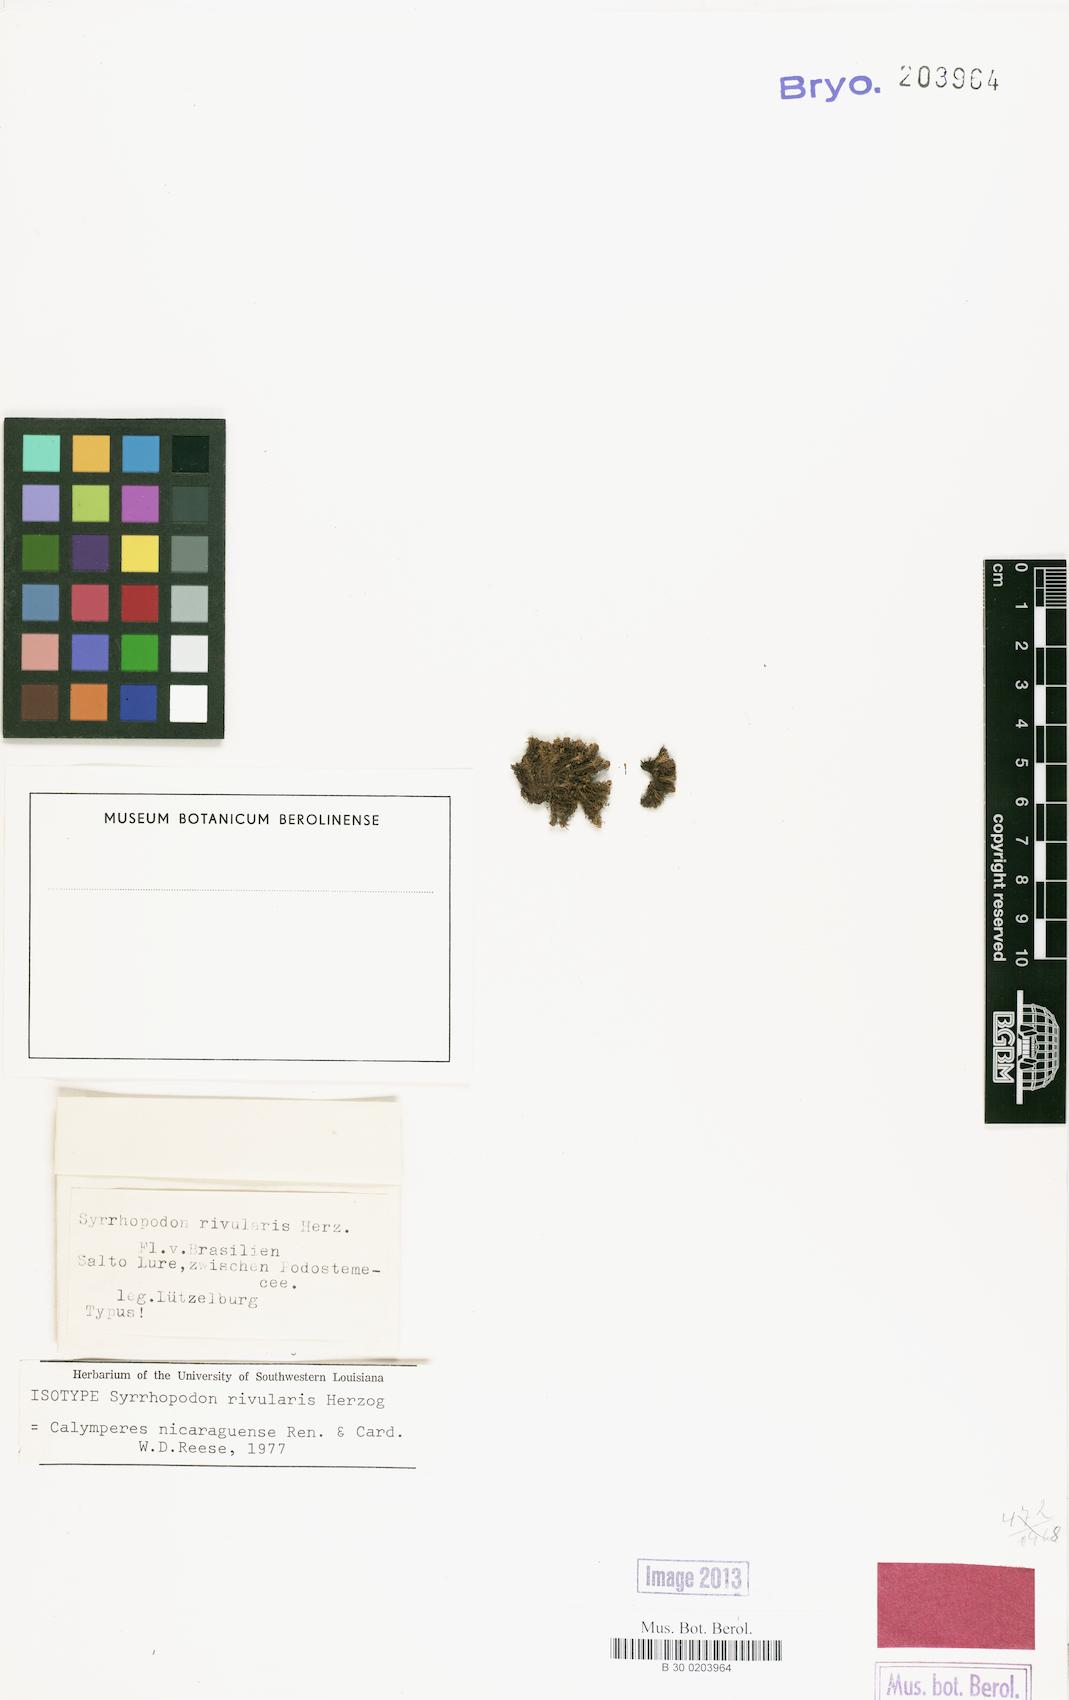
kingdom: Plantae
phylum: Bryophyta
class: Bryopsida
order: Dicranales
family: Calymperaceae
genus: Calymperes
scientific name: Calymperes nicaraguense
